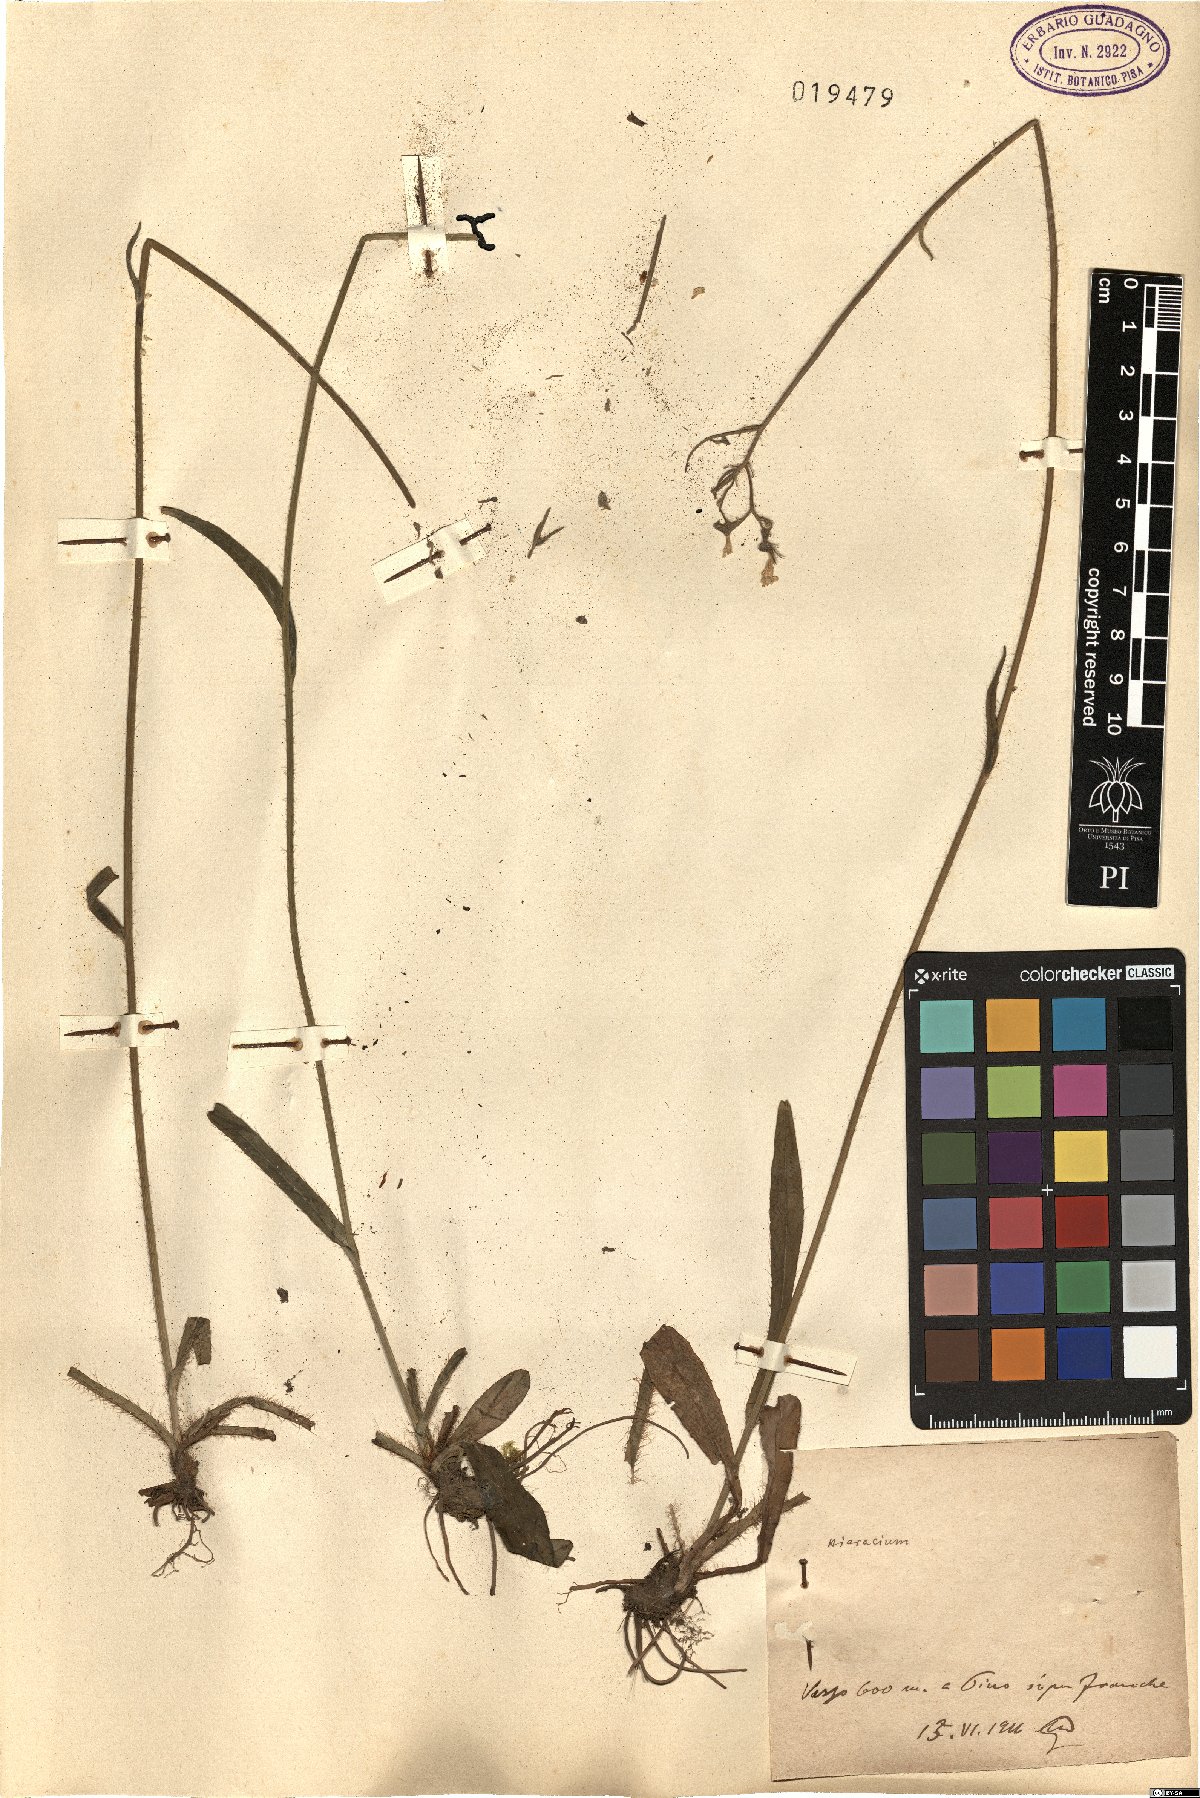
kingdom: Plantae
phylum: Tracheophyta
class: Magnoliopsida
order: Asterales
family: Asteraceae
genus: Hieracium
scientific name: Hieracium
